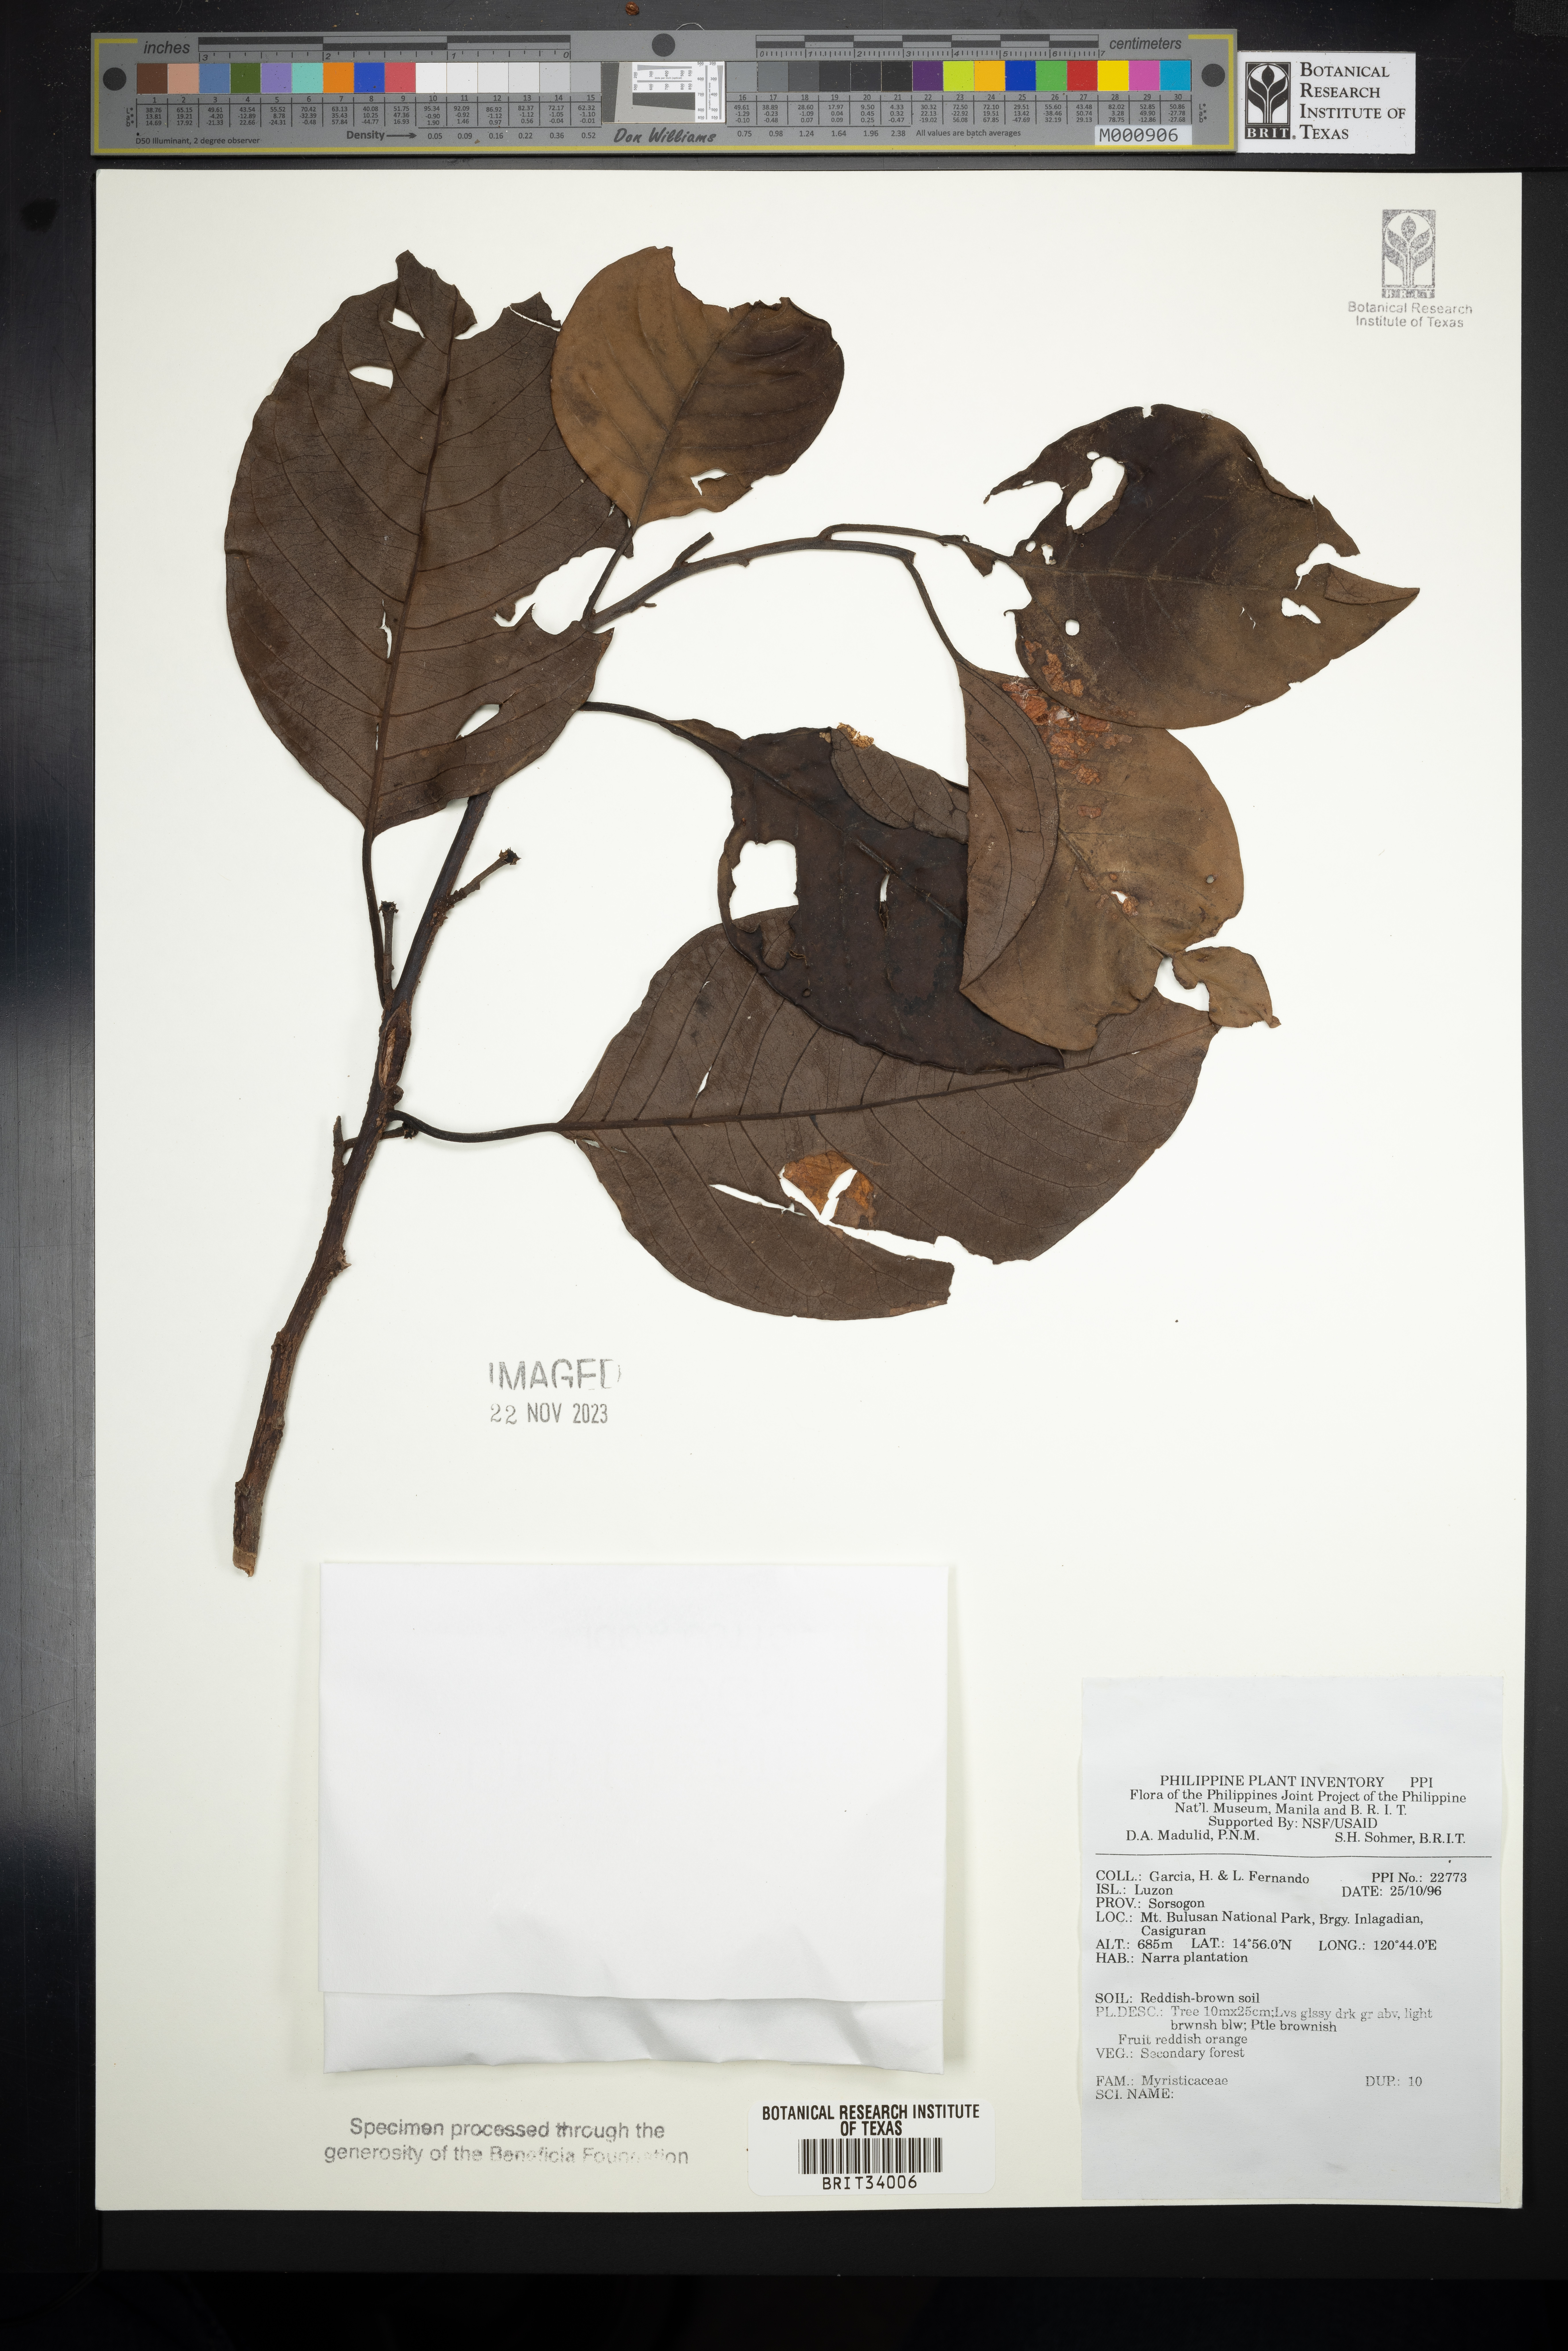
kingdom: Plantae
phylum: Tracheophyta
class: Magnoliopsida
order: Magnoliales
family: Myristicaceae
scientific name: Myristicaceae
